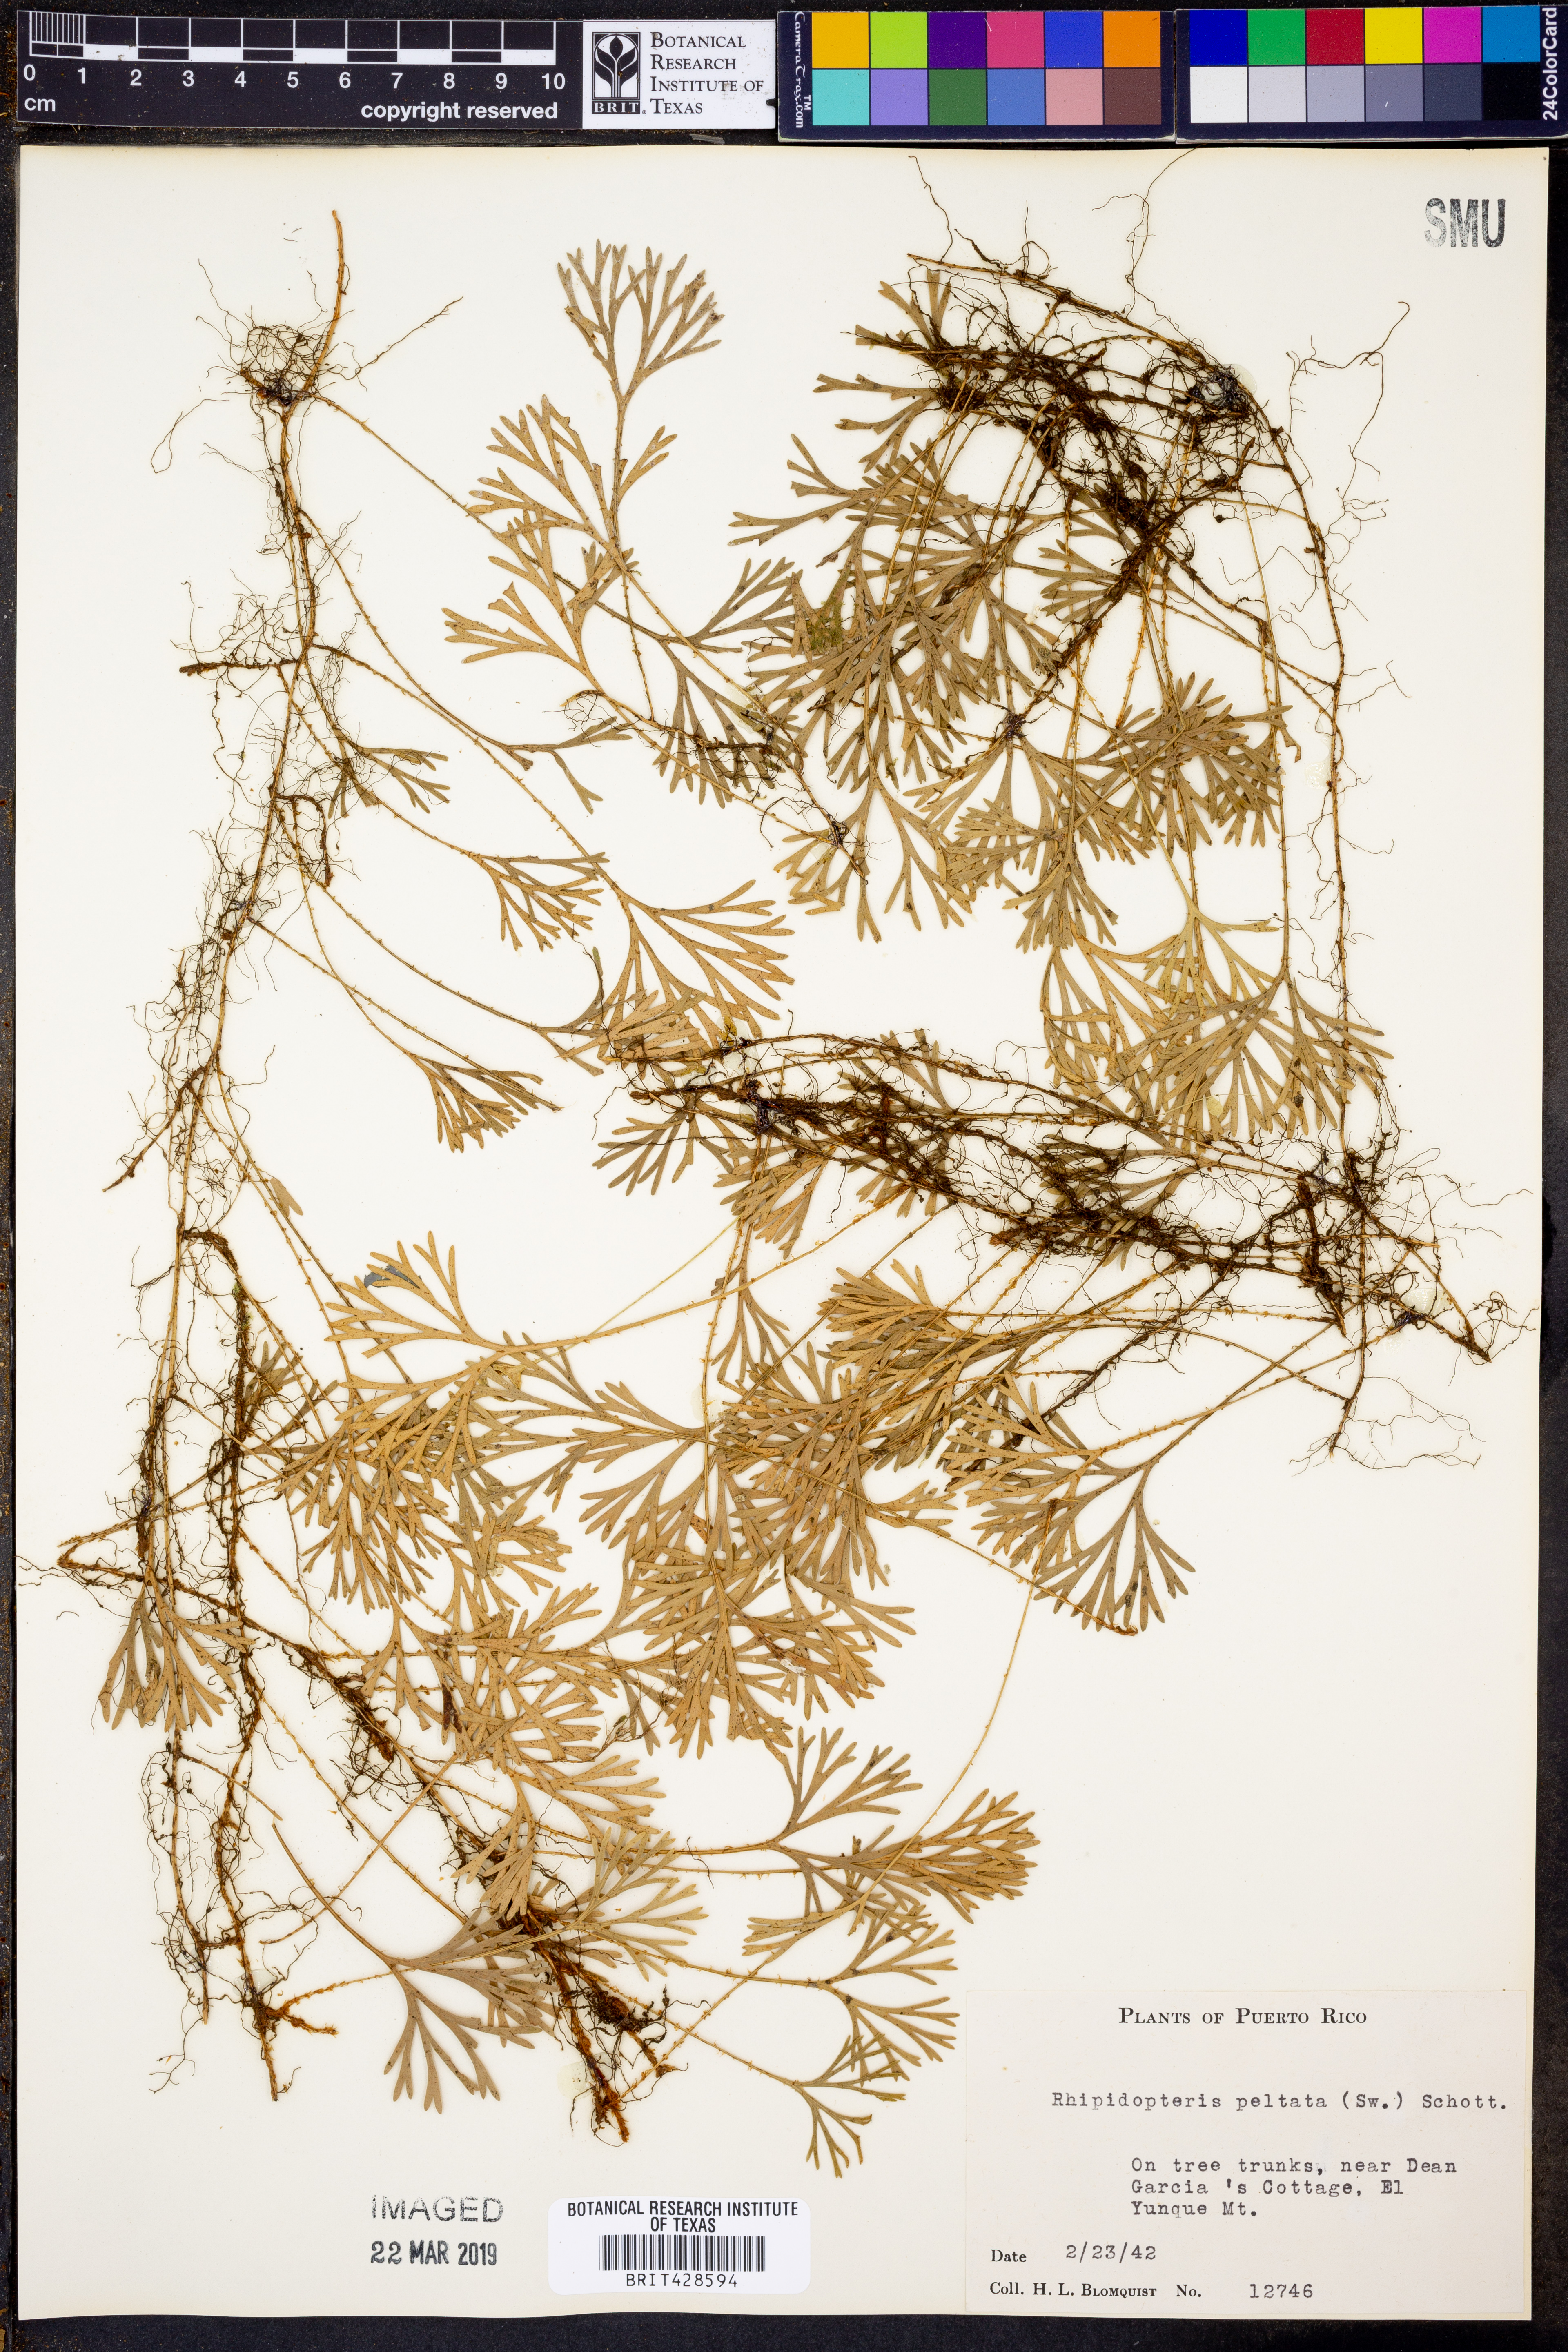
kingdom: Plantae
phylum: Tracheophyta
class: Polypodiopsida
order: Polypodiales
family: Dryopteridaceae
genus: Elaphoglossum
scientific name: Elaphoglossum peltatum
